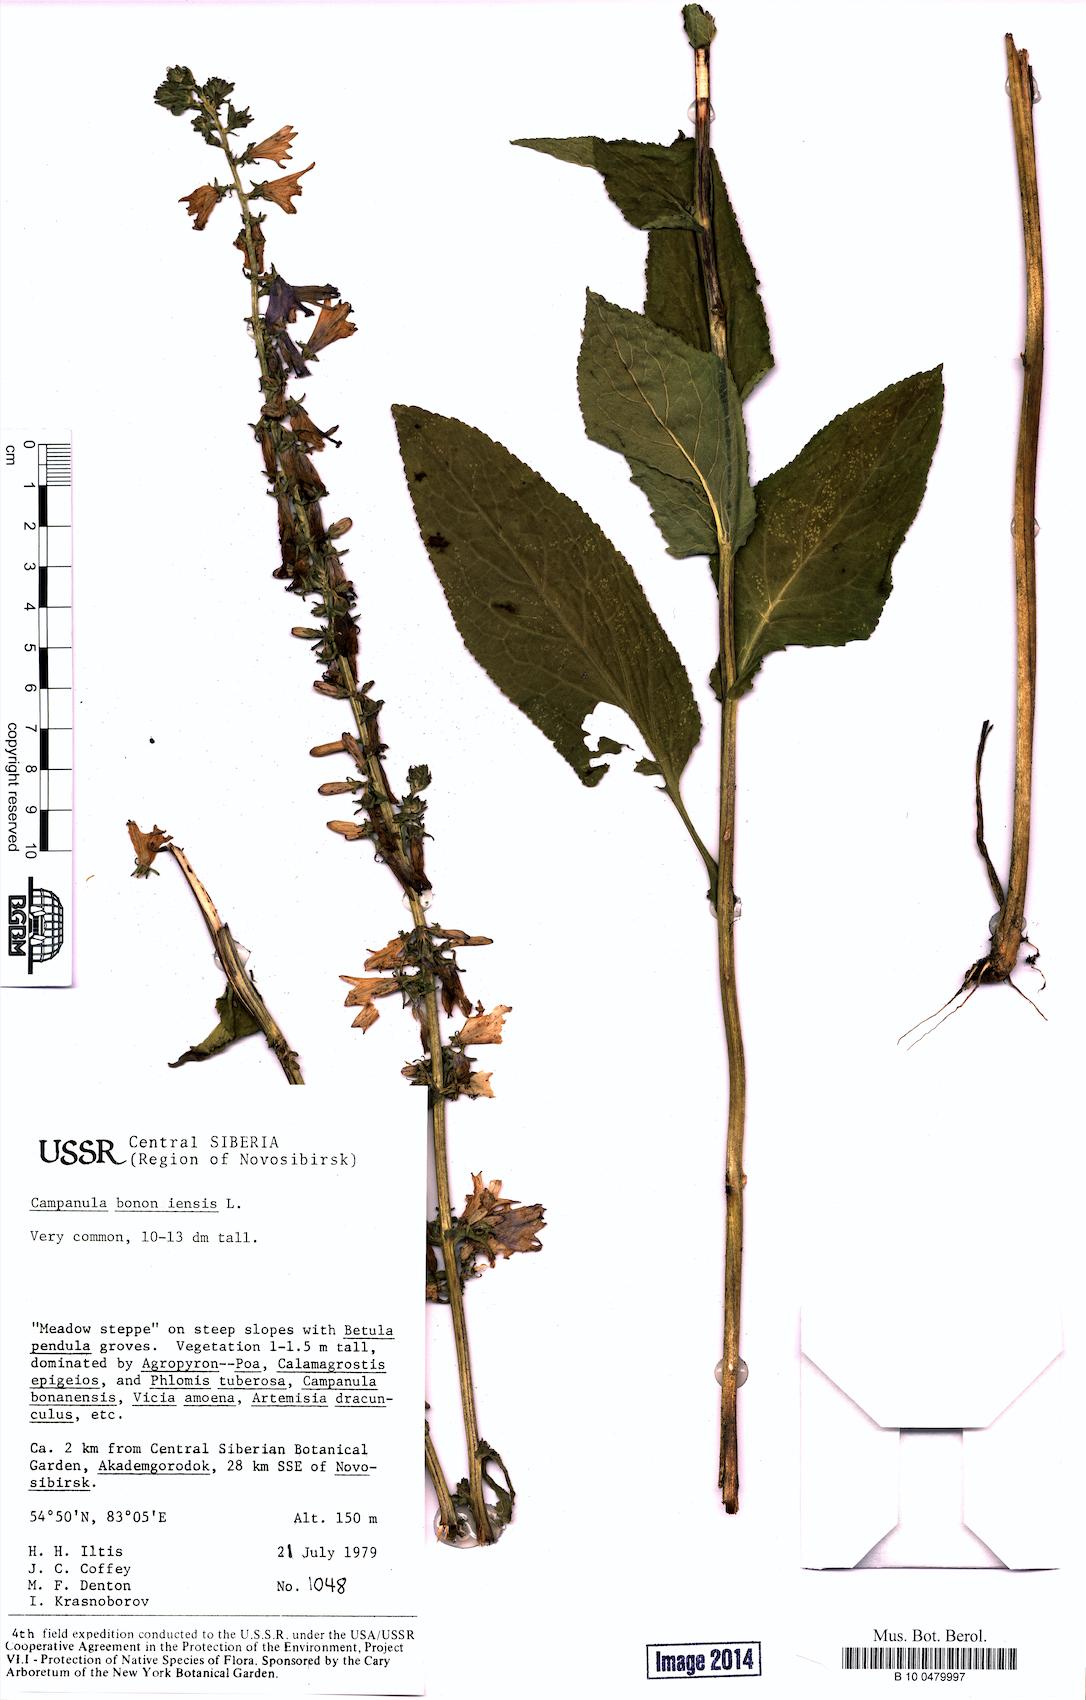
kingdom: Plantae
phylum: Tracheophyta
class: Magnoliopsida
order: Asterales
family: Campanulaceae
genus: Campanula
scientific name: Campanula bononiensis
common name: Pale bellflower
